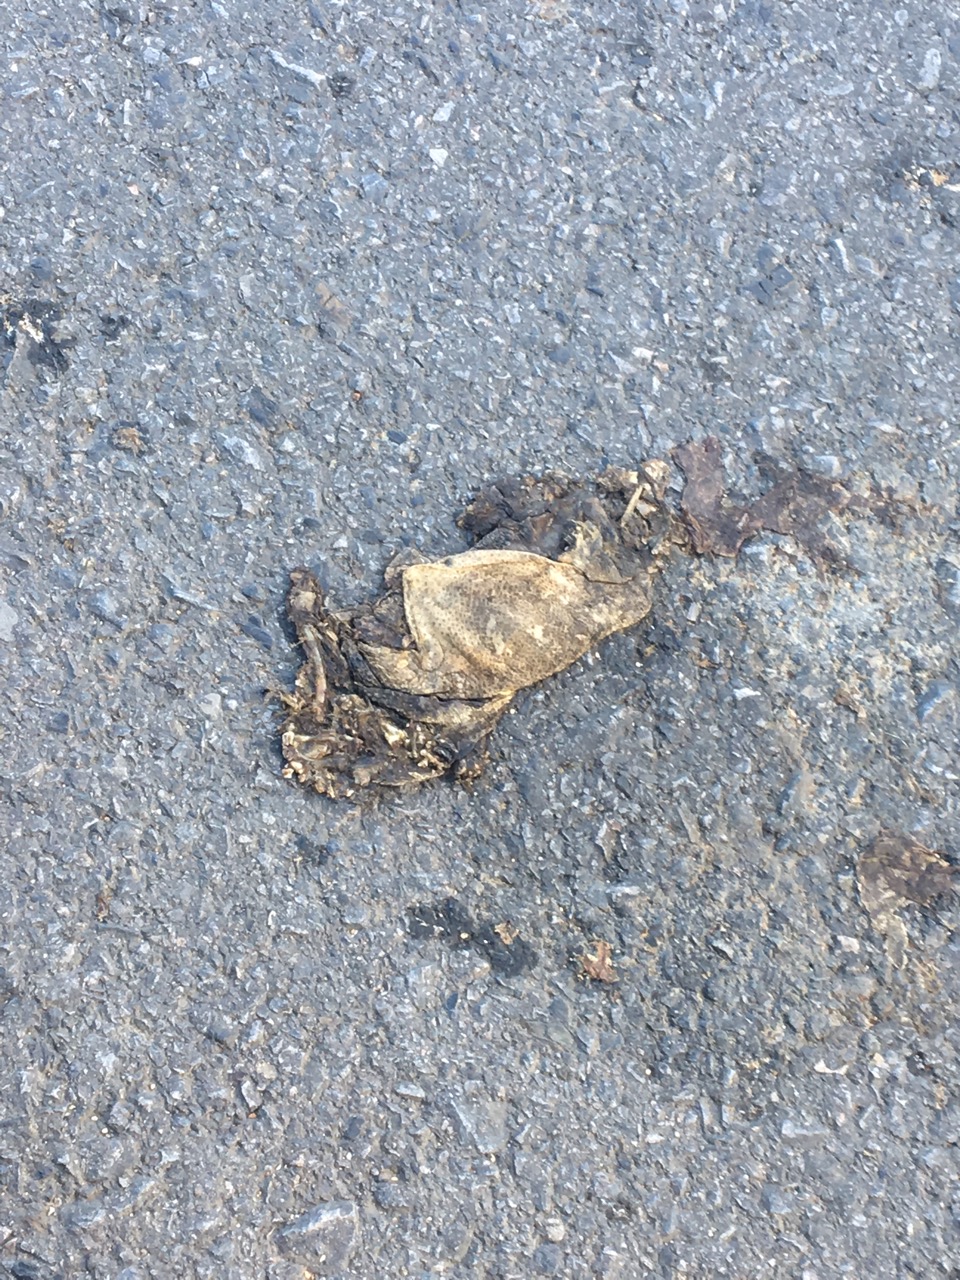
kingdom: Animalia
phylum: Chordata
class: Amphibia
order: Anura
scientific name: Anura
